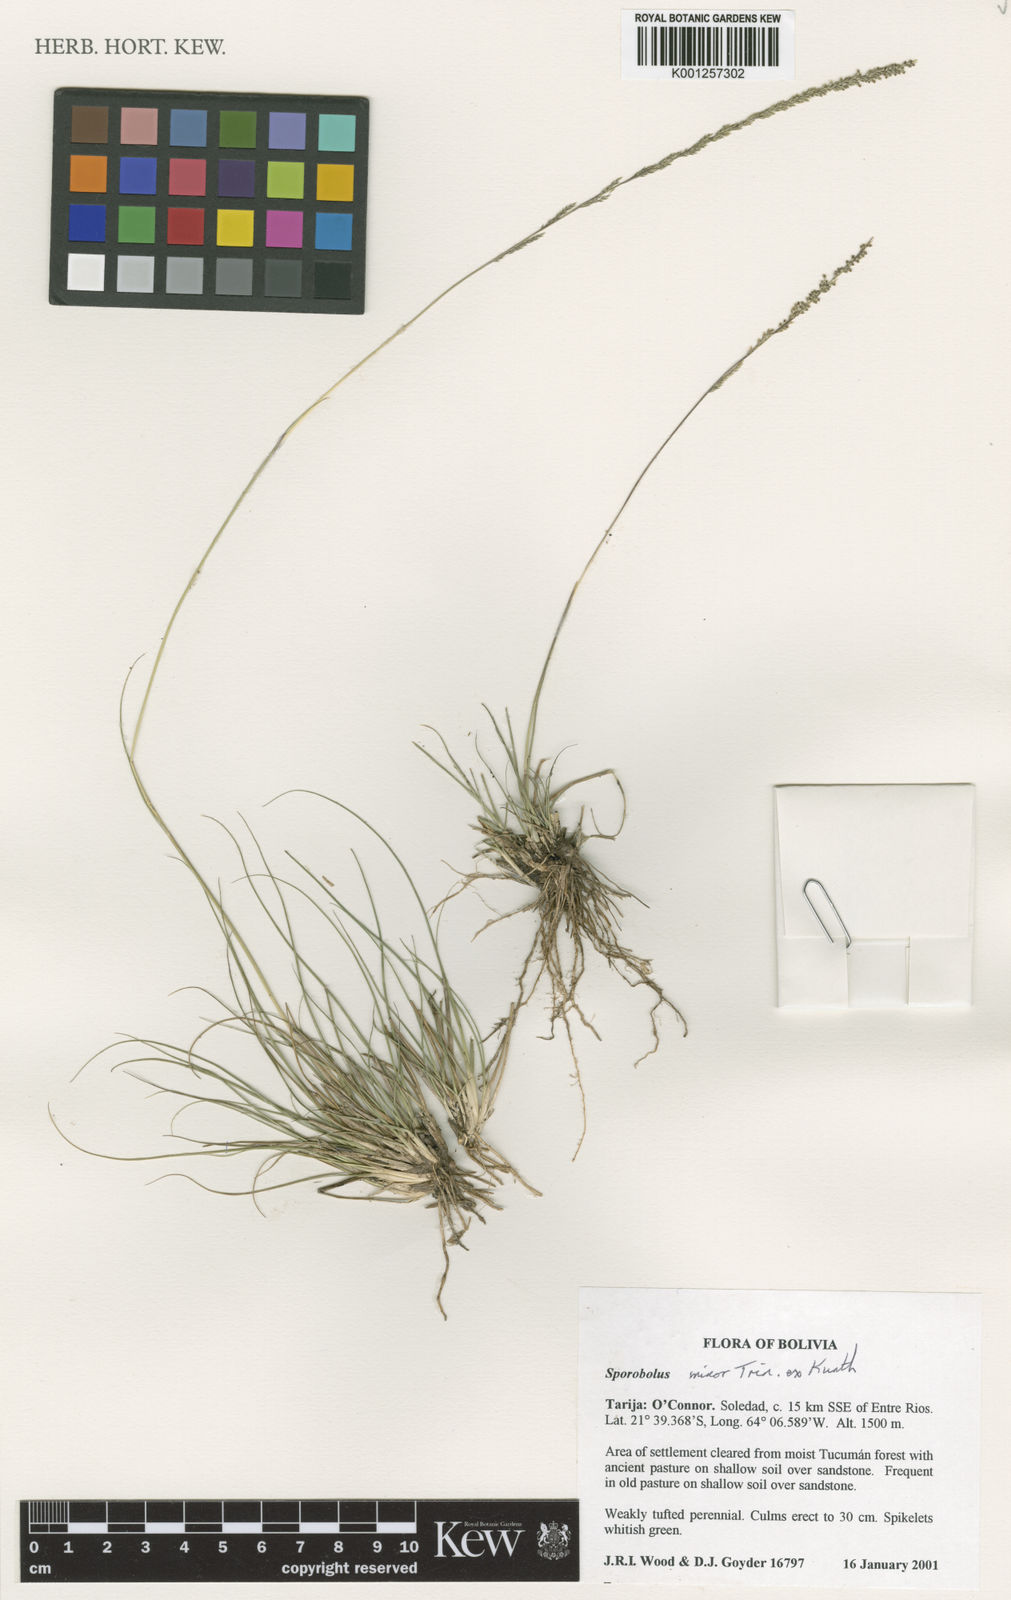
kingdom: Plantae
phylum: Tracheophyta
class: Liliopsida
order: Poales
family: Poaceae
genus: Sporobolus
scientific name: Sporobolus
